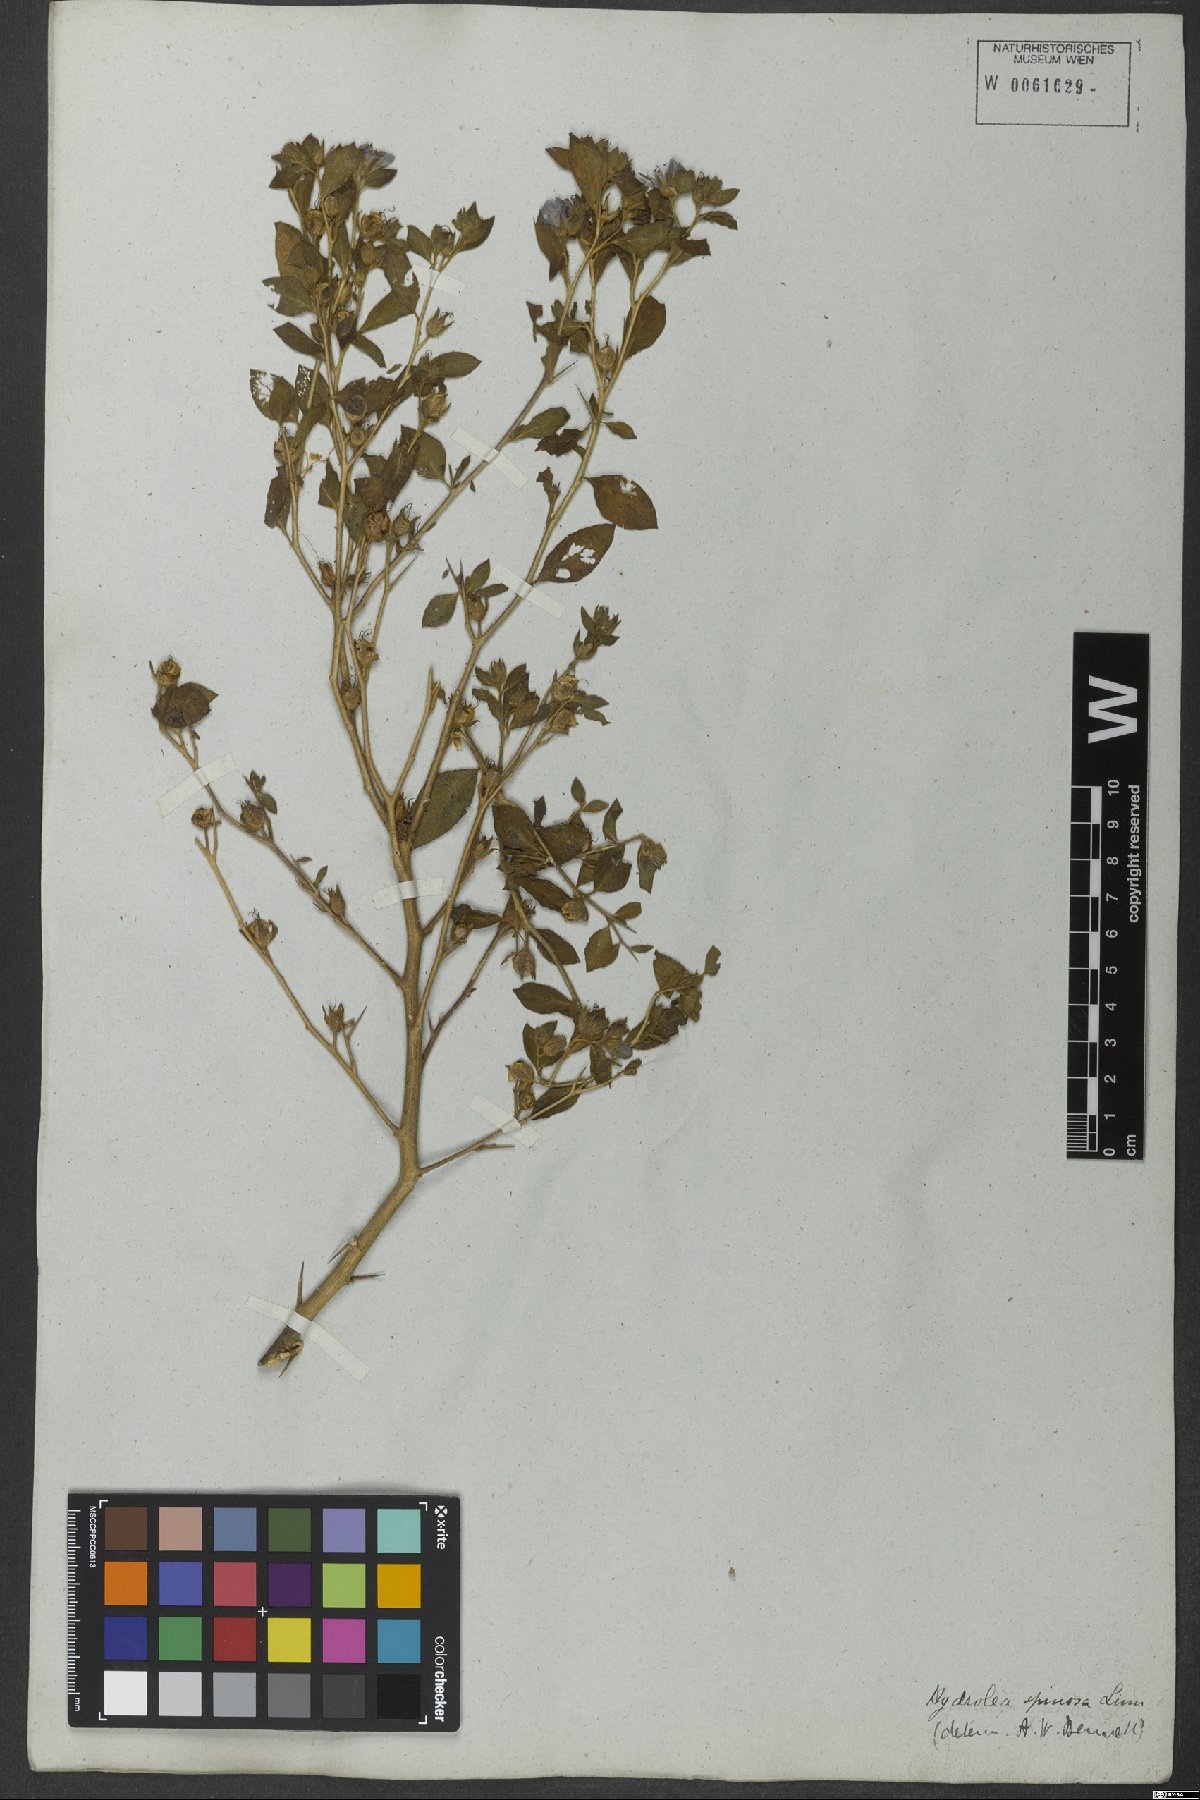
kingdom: Plantae
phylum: Tracheophyta
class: Magnoliopsida
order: Solanales
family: Hydroleaceae
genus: Hydrolea
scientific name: Hydrolea spinosa
